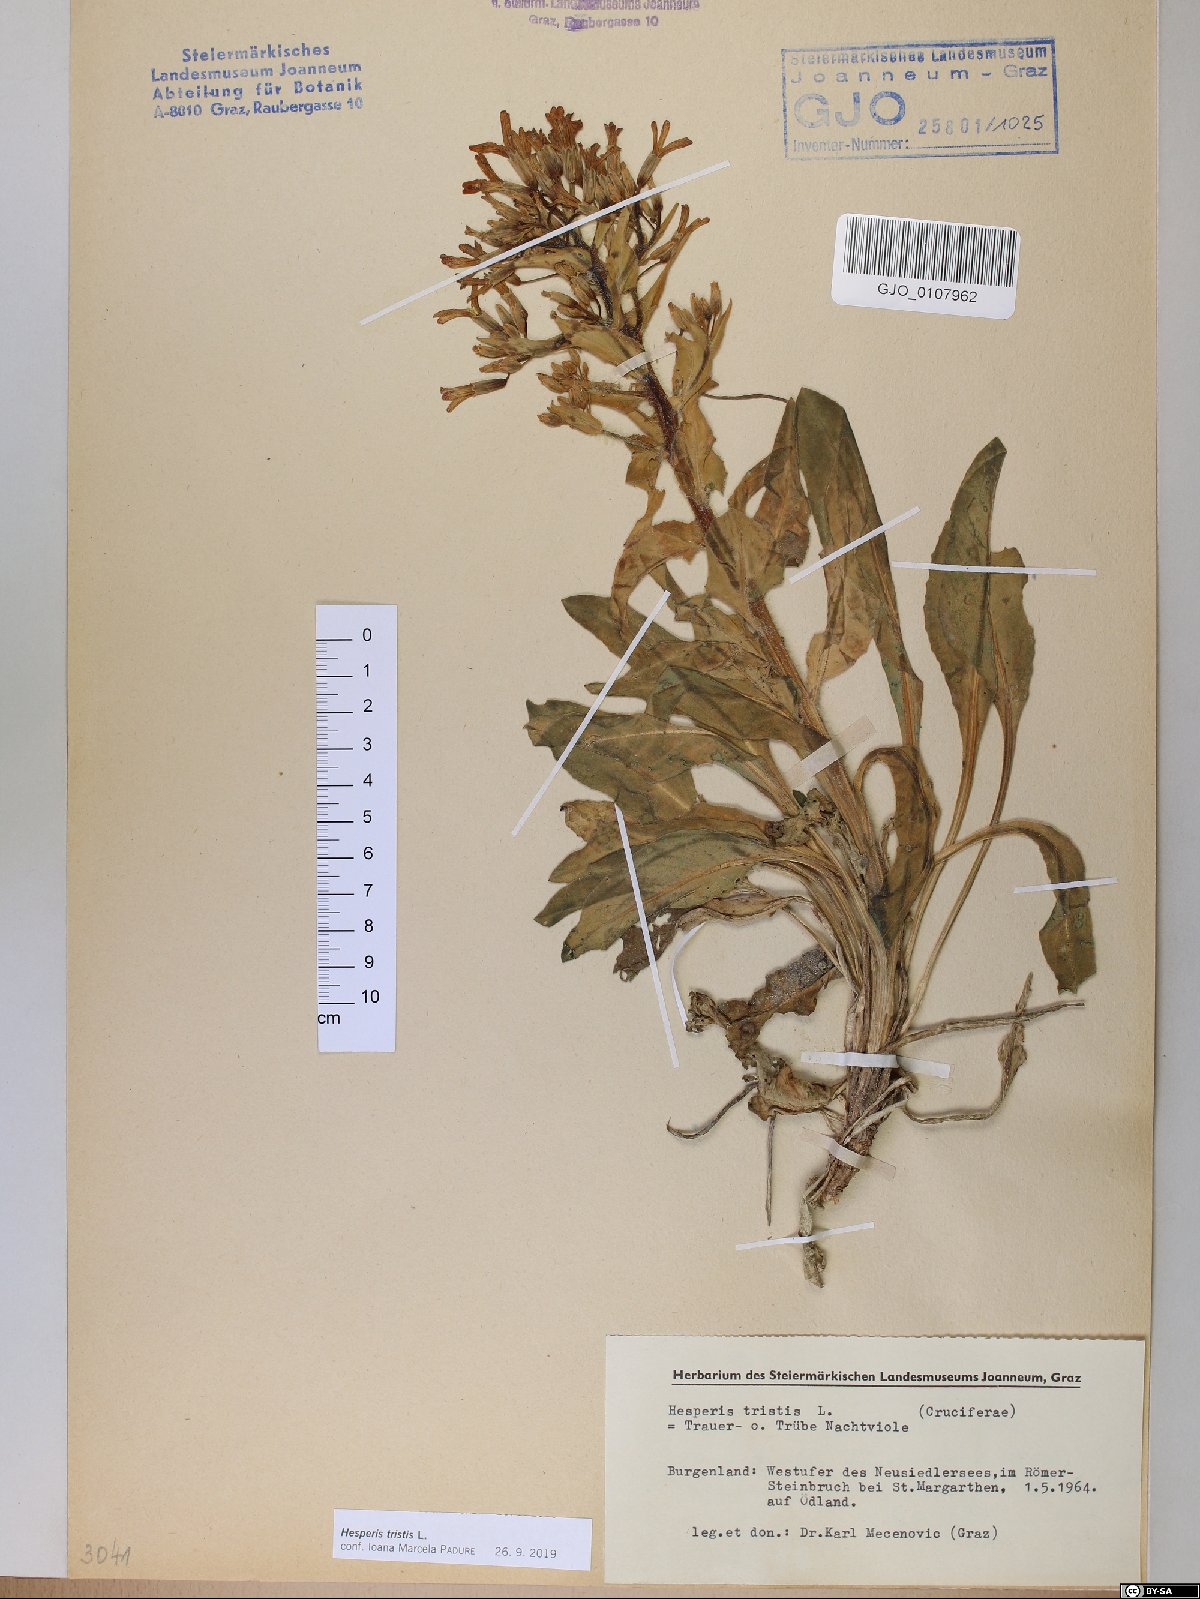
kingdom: Plantae
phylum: Tracheophyta
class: Magnoliopsida
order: Brassicales
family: Brassicaceae
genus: Hesperis
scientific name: Hesperis tristis
